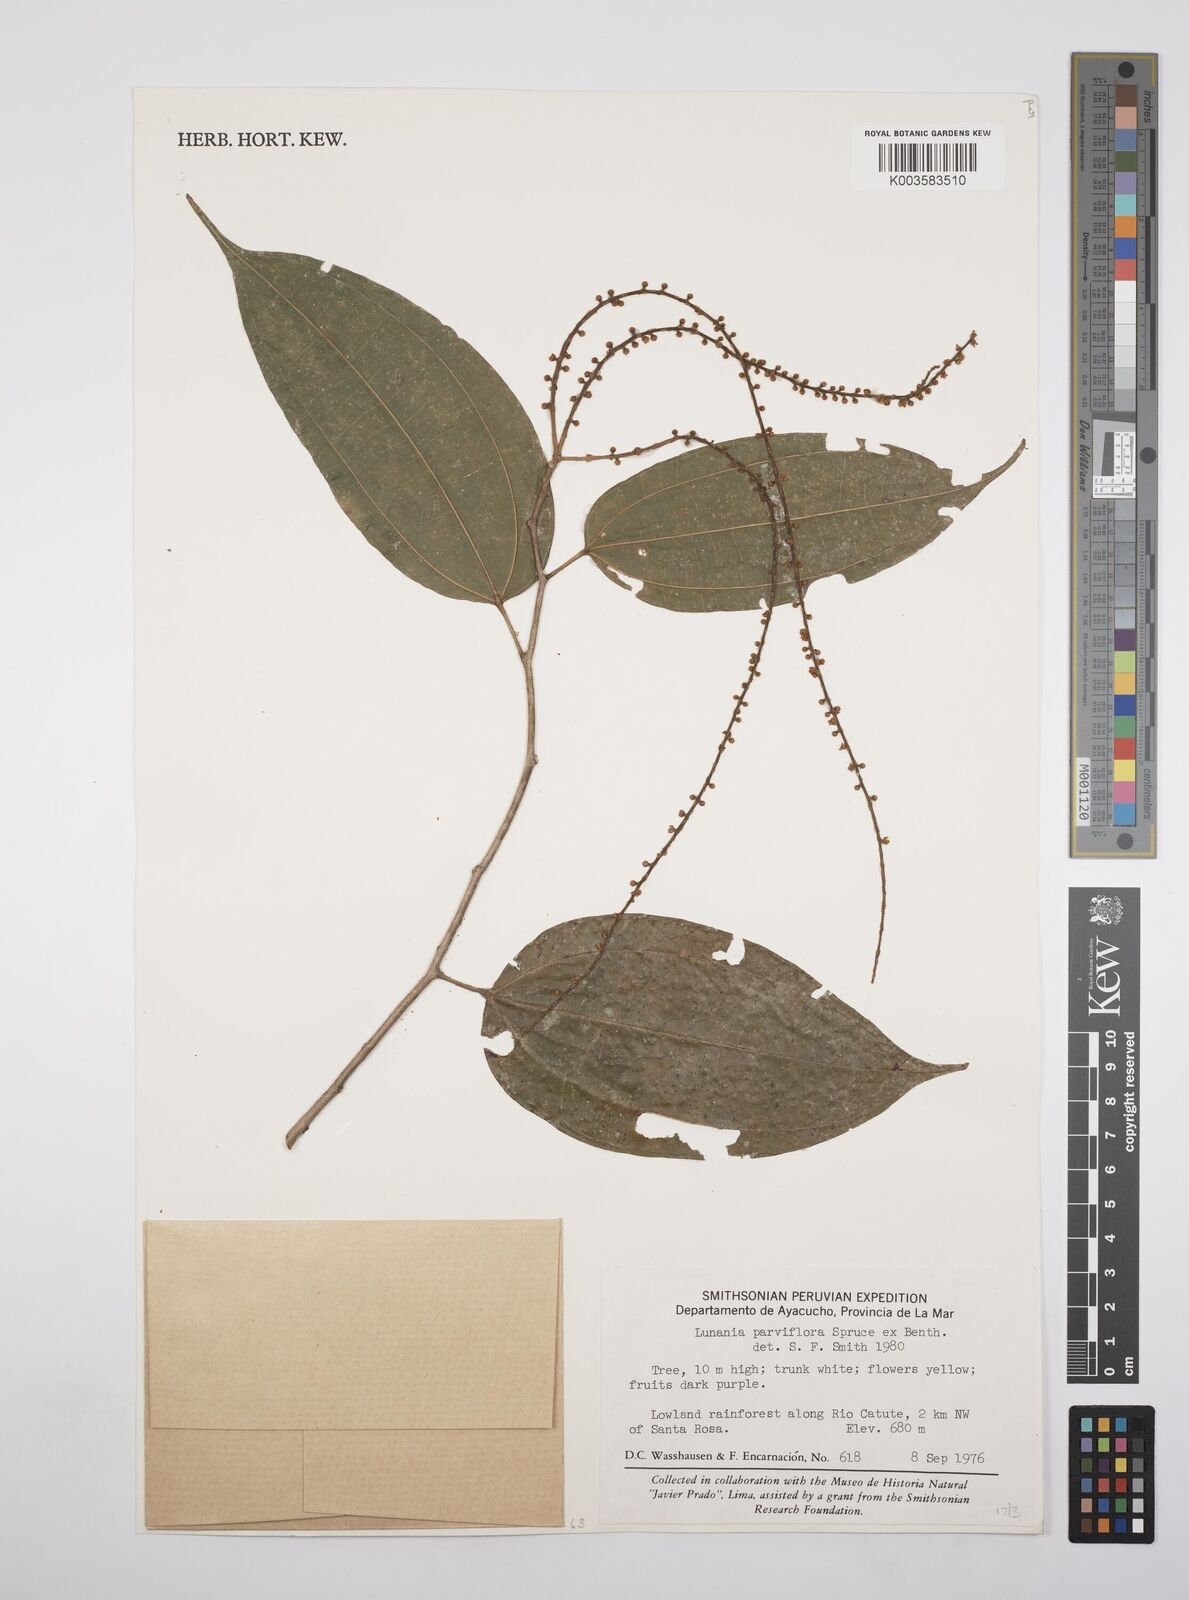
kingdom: Plantae
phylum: Tracheophyta
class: Magnoliopsida
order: Malpighiales
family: Salicaceae
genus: Lunania
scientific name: Lunania parviflora
